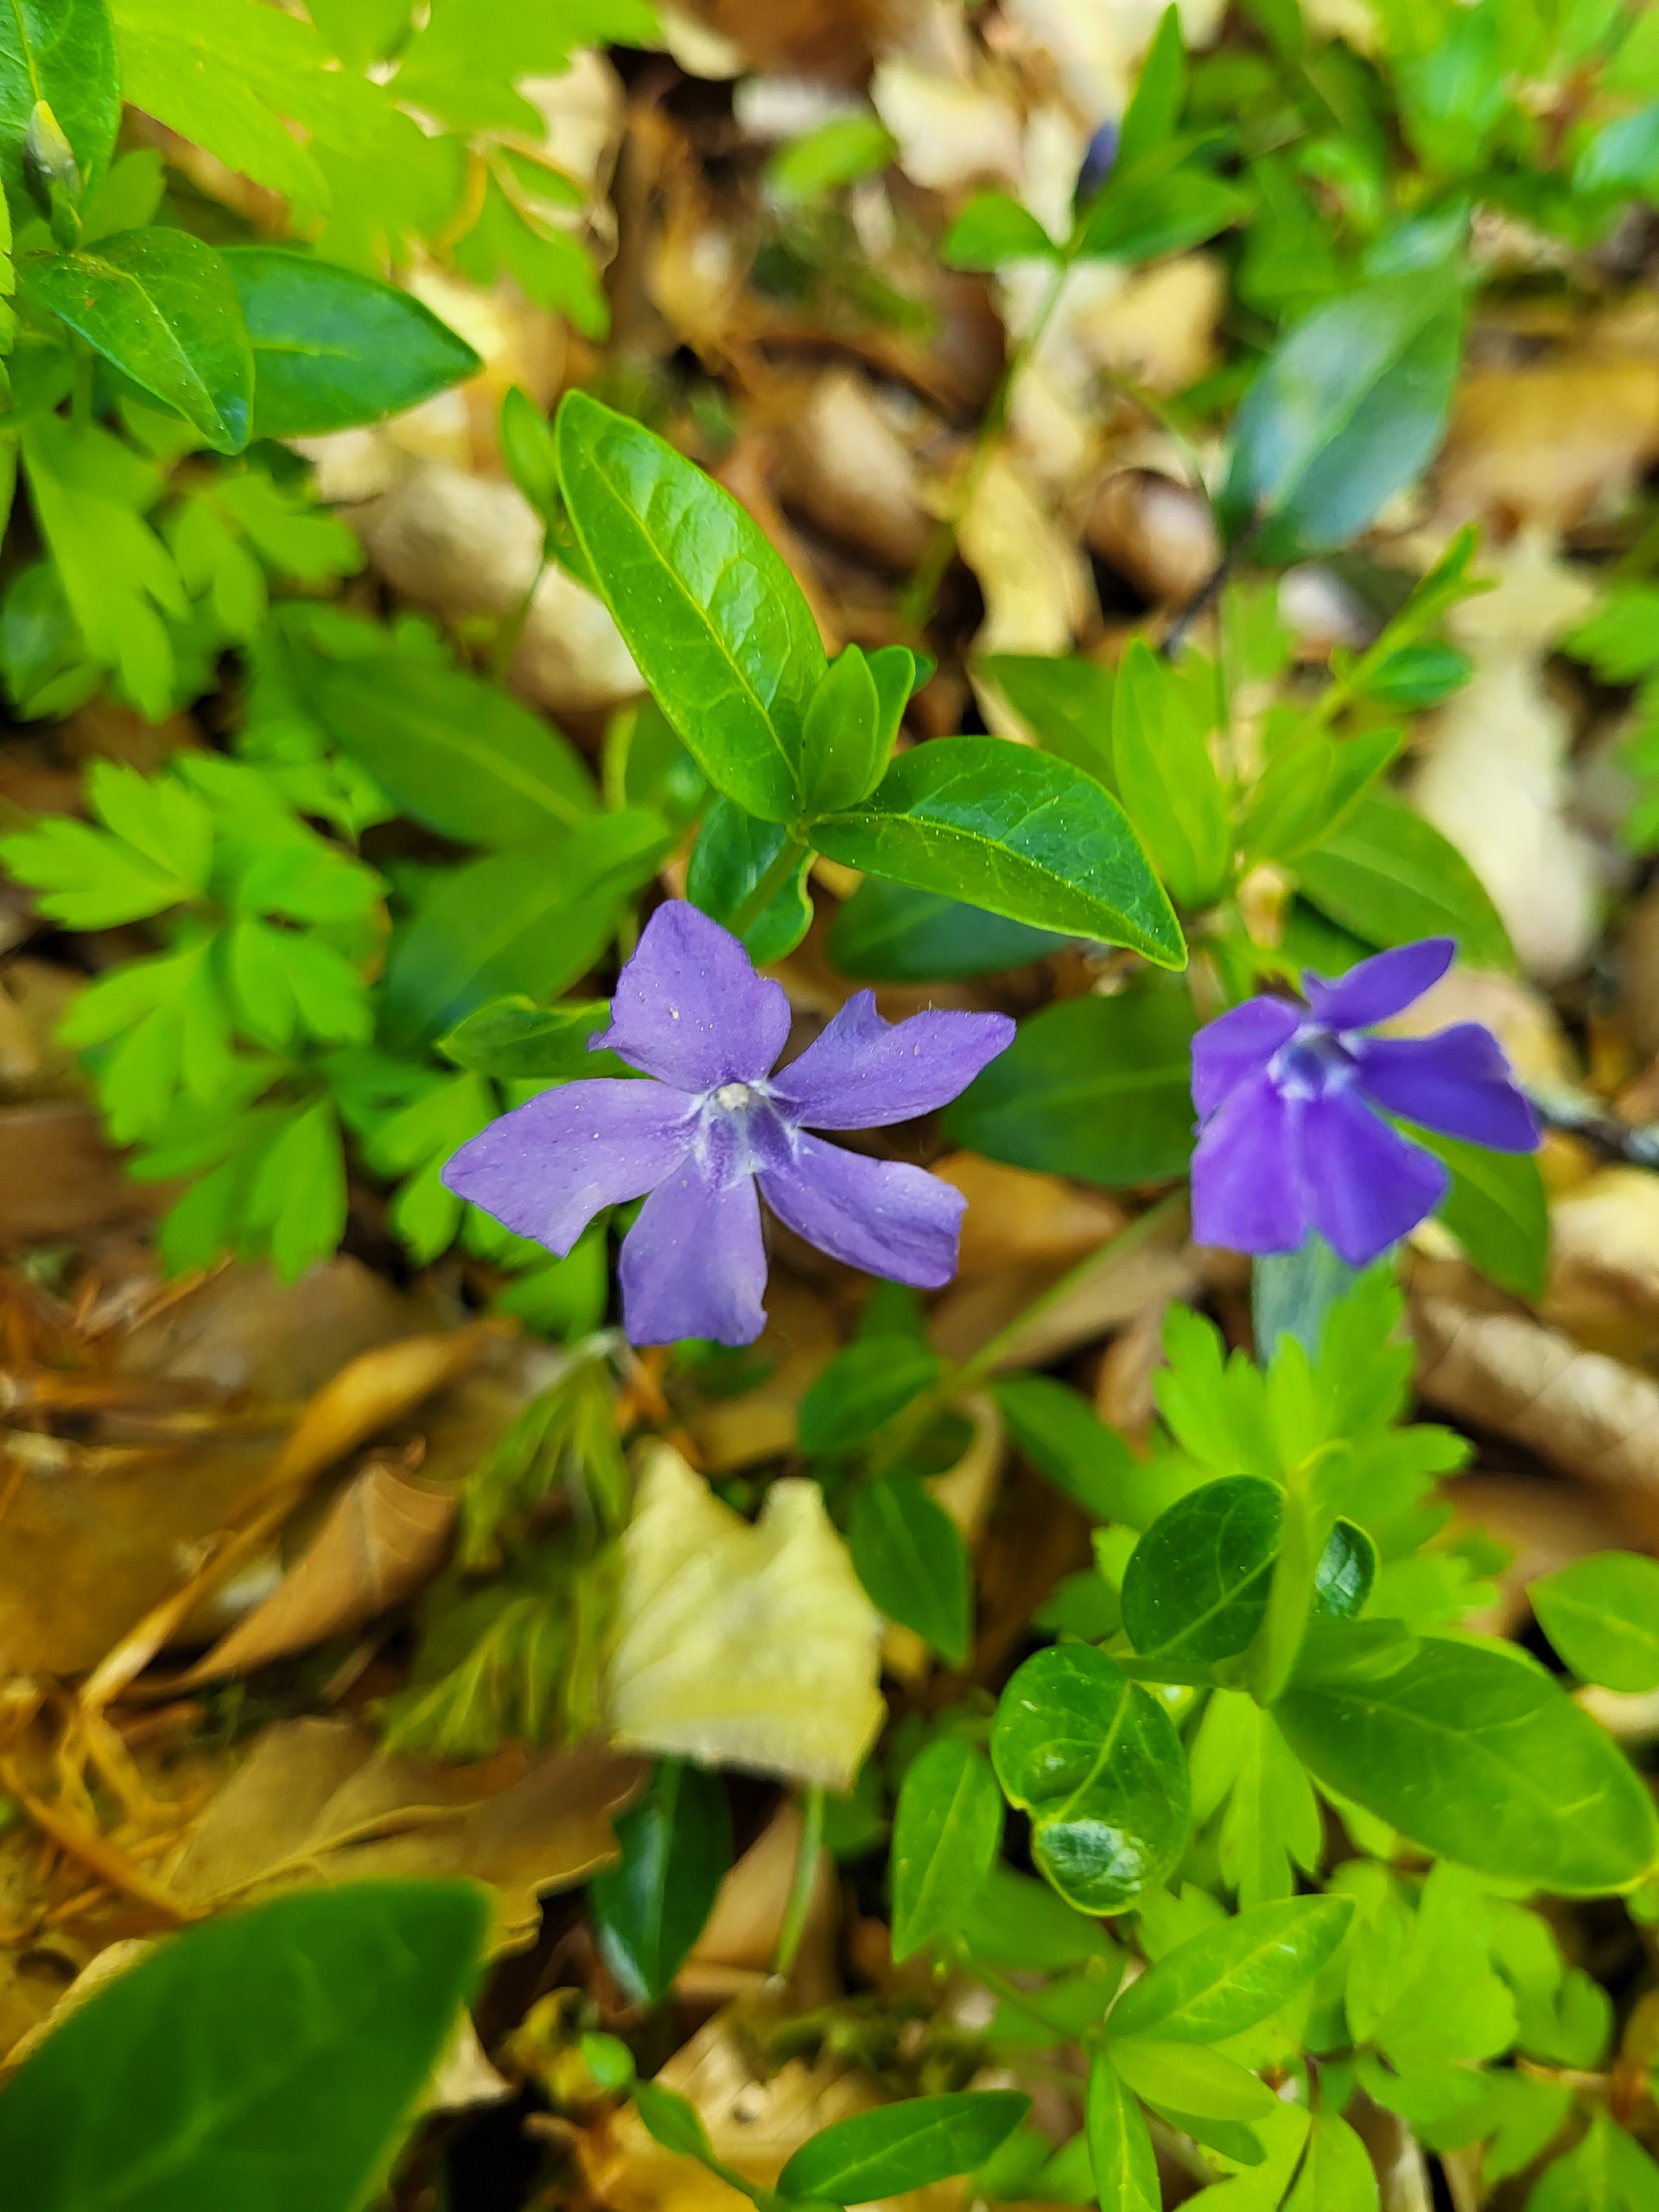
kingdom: Plantae
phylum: Tracheophyta
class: Magnoliopsida
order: Gentianales
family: Apocynaceae
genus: Vinca
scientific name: Vinca minor
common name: Liden singrøn
